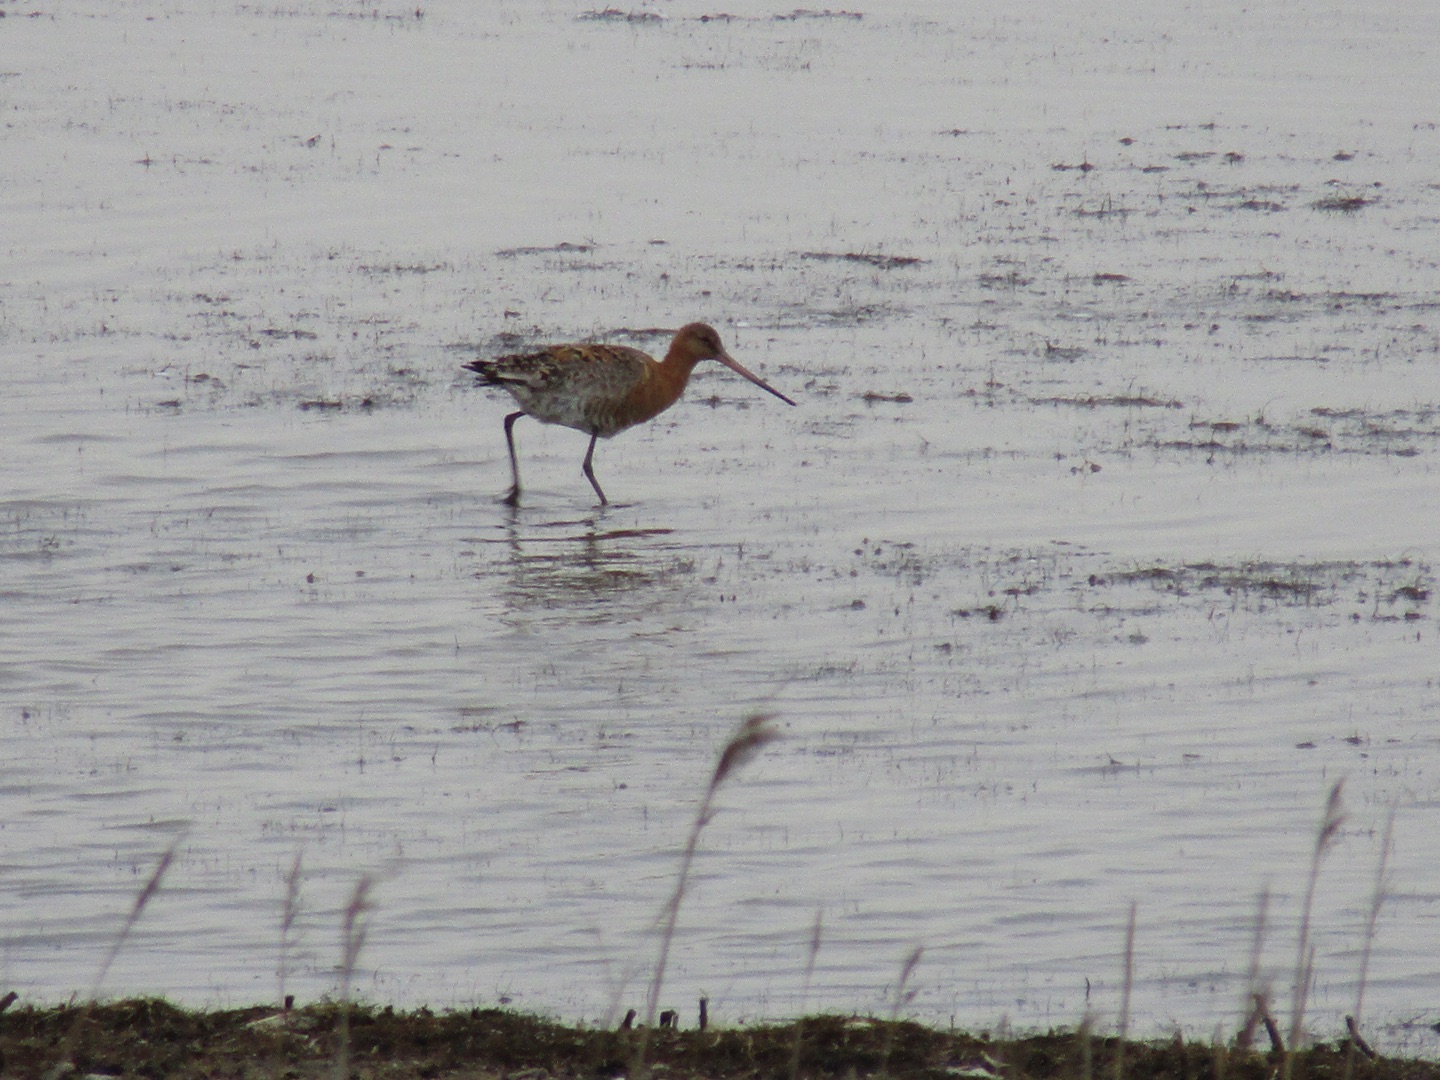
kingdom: Animalia
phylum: Chordata
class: Aves
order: Charadriiformes
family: Scolopacidae
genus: Limosa
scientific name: Limosa limosa
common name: Stor kobbersneppe
